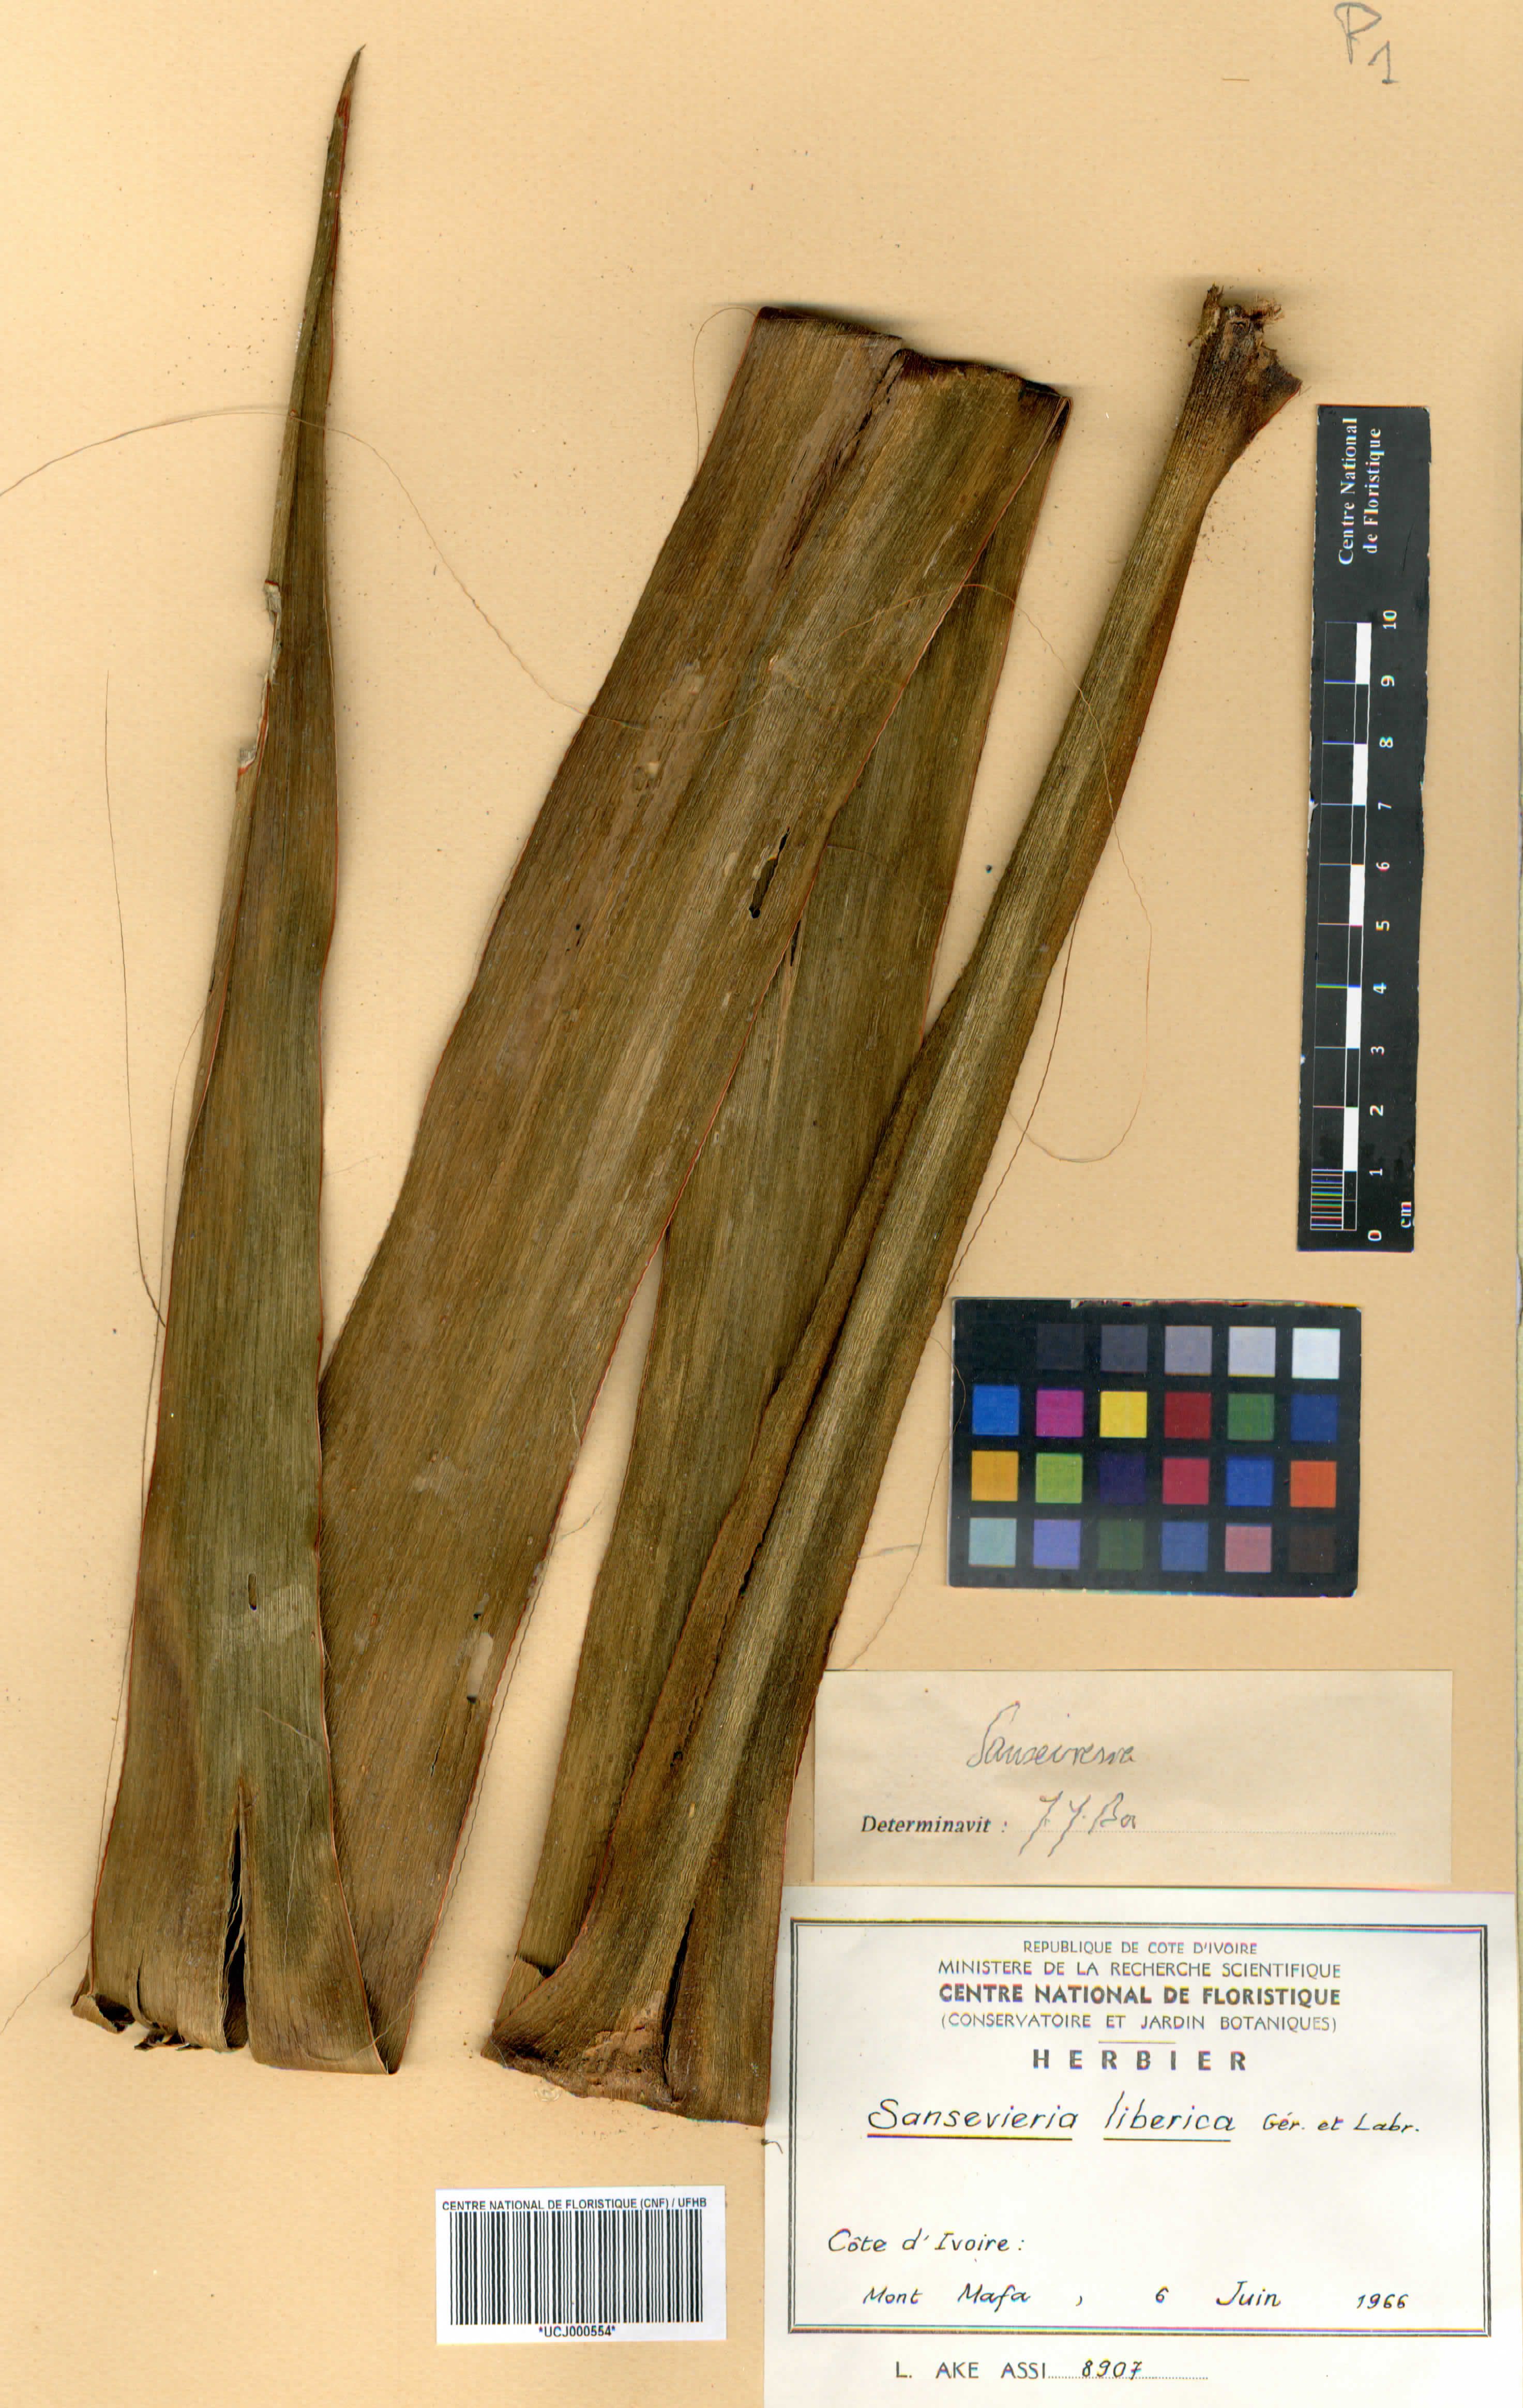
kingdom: Plantae
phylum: Tracheophyta
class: Liliopsida
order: Asparagales
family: Asparagaceae
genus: Dracaena
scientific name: Dracaena liberica
